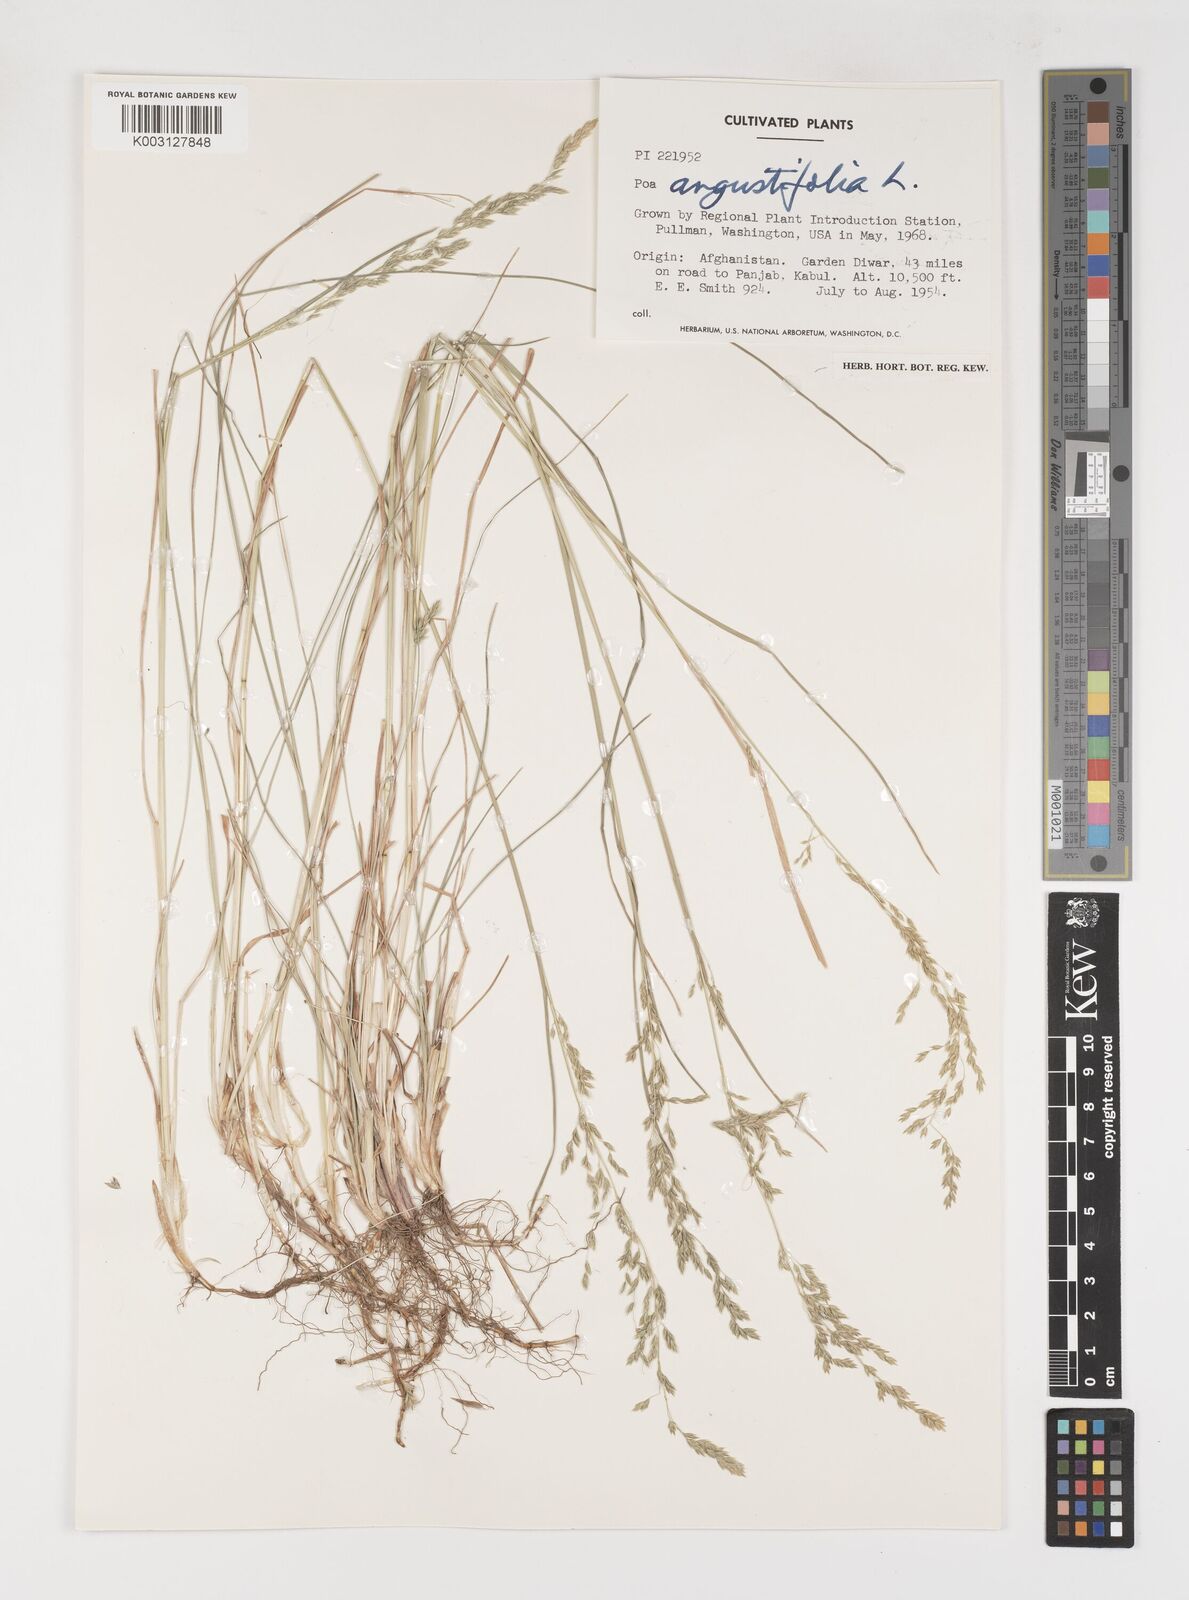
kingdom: Plantae
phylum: Tracheophyta
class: Liliopsida
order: Poales
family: Poaceae
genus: Poa
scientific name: Poa angustifolia
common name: Narrow-leaved meadow-grass
